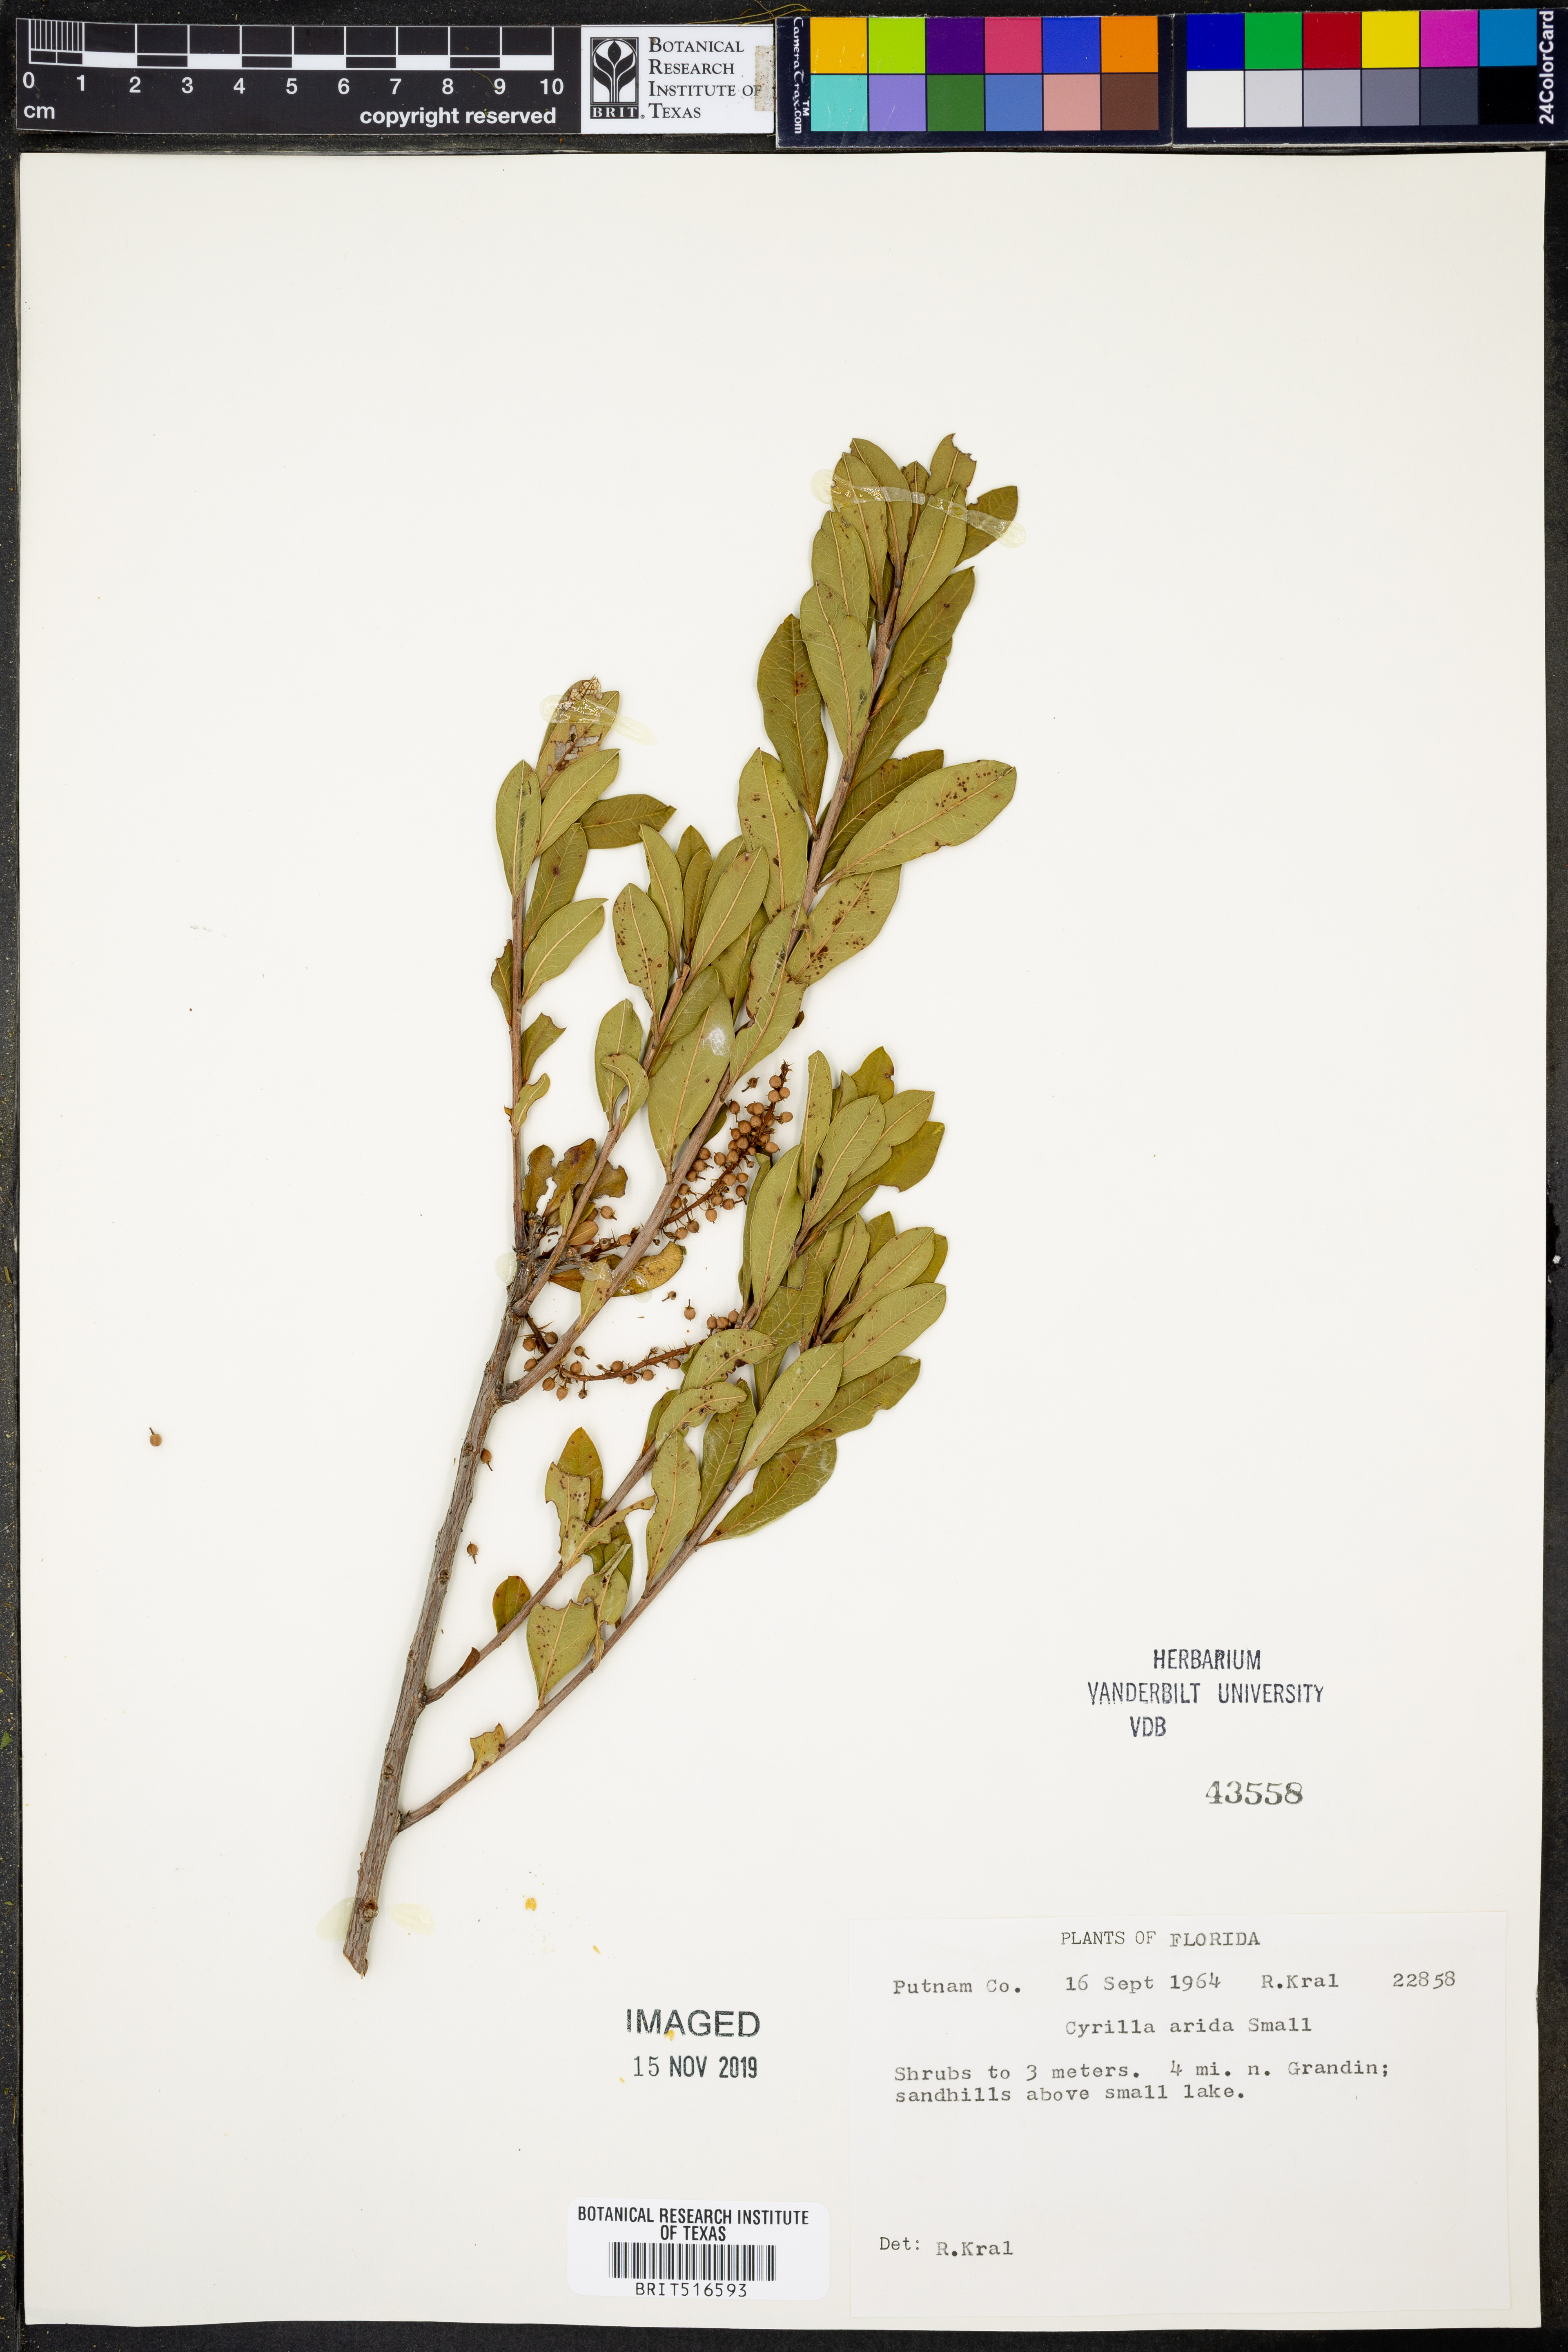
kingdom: Plantae
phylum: Tracheophyta
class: Magnoliopsida
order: Ericales
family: Cyrillaceae
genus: Cyrilla
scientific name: Cyrilla racemiflora
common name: Black titi
